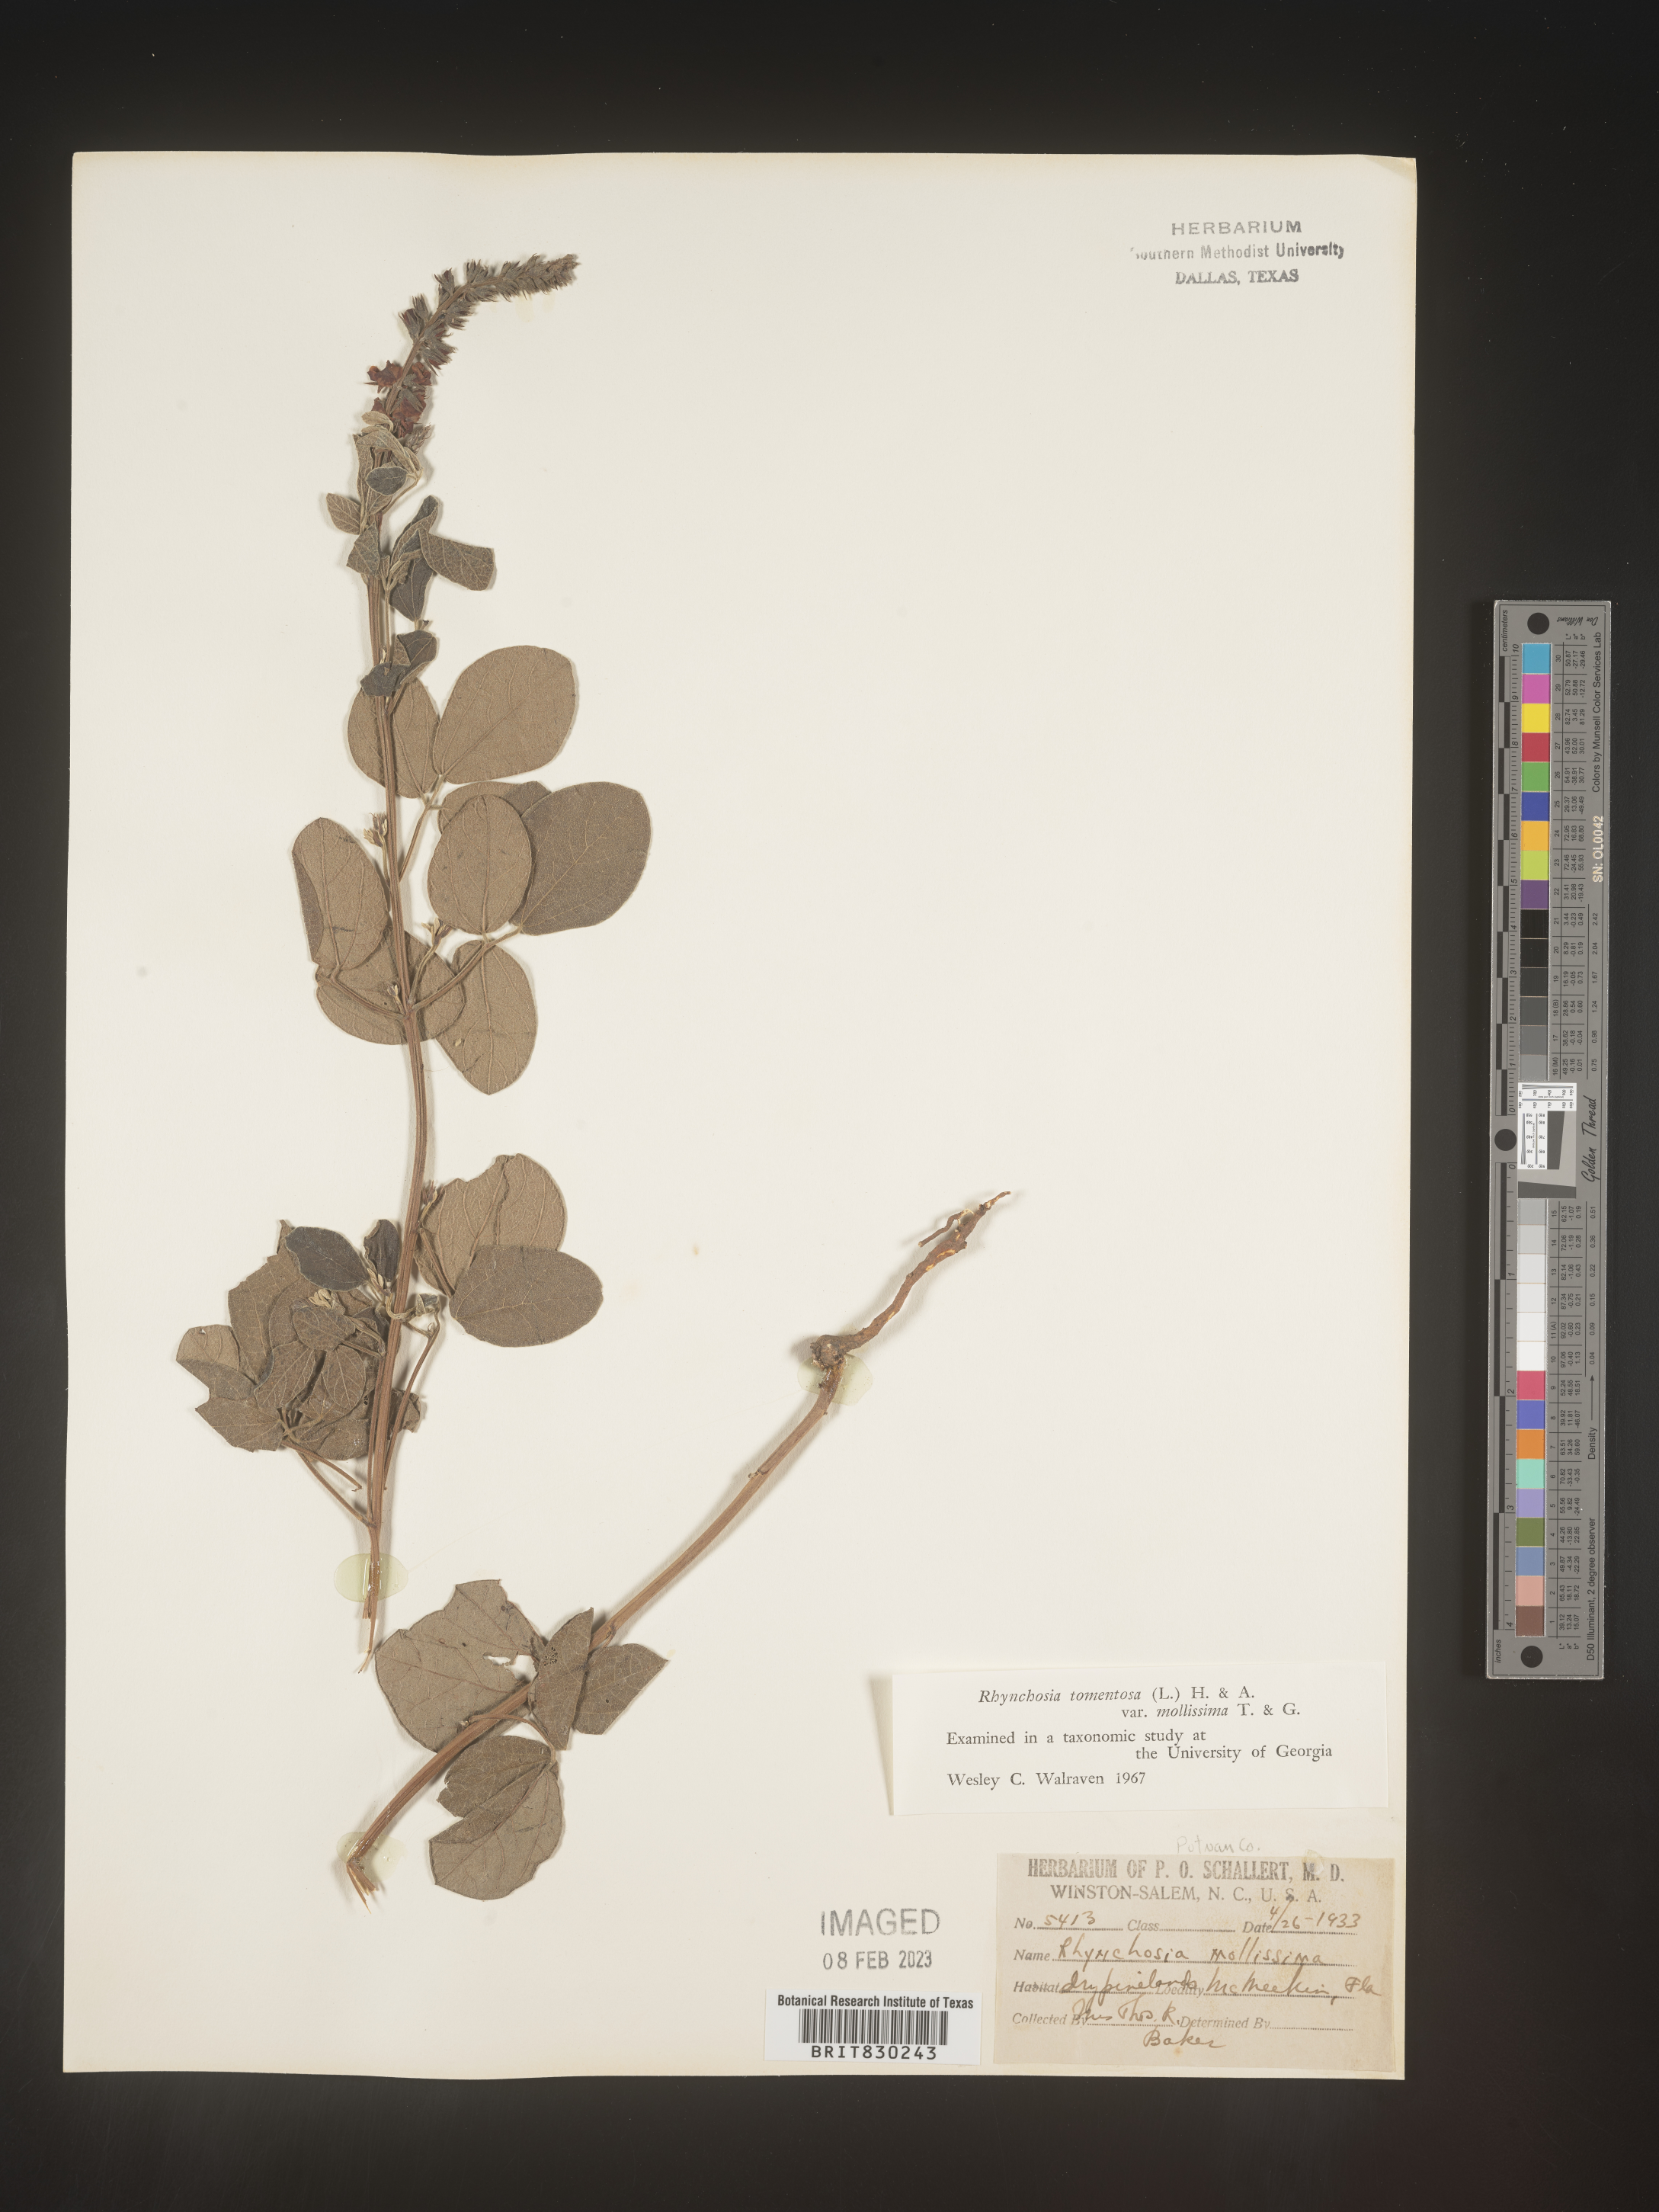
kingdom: Plantae
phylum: Tracheophyta
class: Magnoliopsida
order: Fabales
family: Fabaceae
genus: Rhynchosia
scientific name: Rhynchosia rothii
